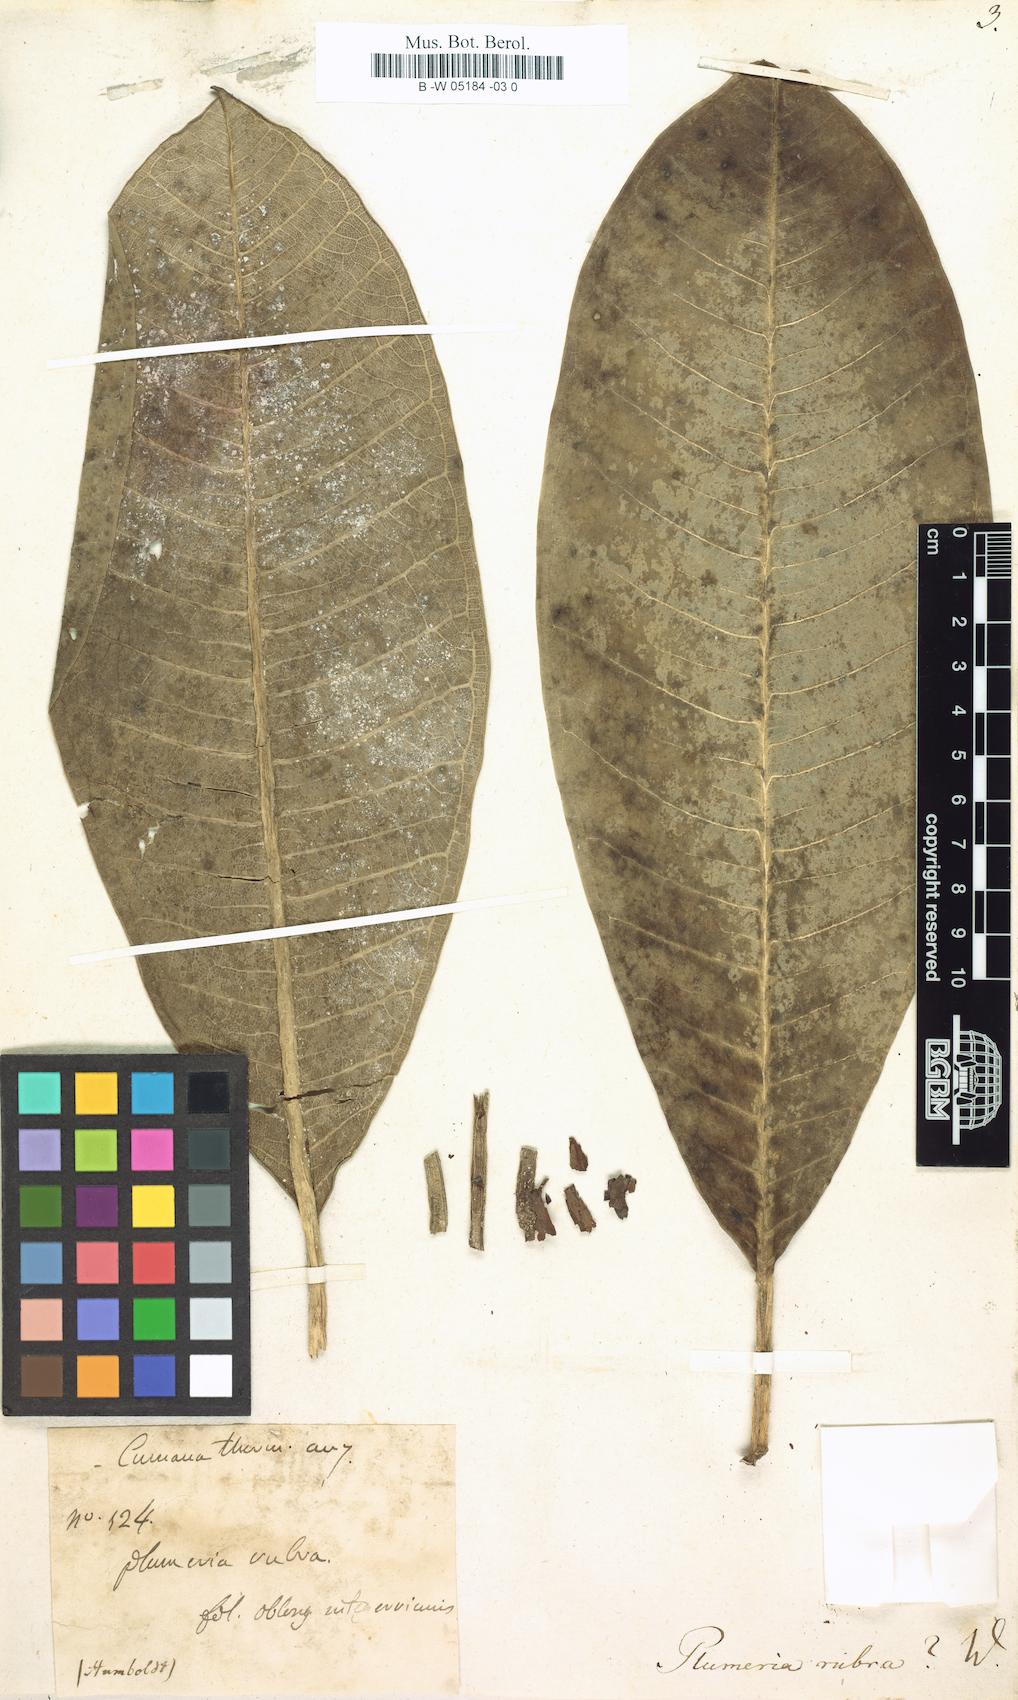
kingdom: Plantae
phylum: Tracheophyta
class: Magnoliopsida
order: Gentianales
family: Apocynaceae
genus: Plumeria
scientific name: Plumeria rubra
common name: Pagoda-tree
